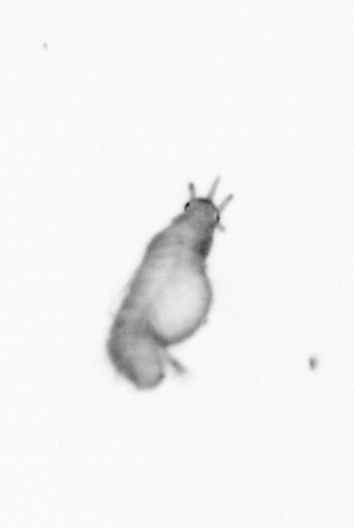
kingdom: Animalia
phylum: Annelida
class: Polychaeta
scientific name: Polychaeta
